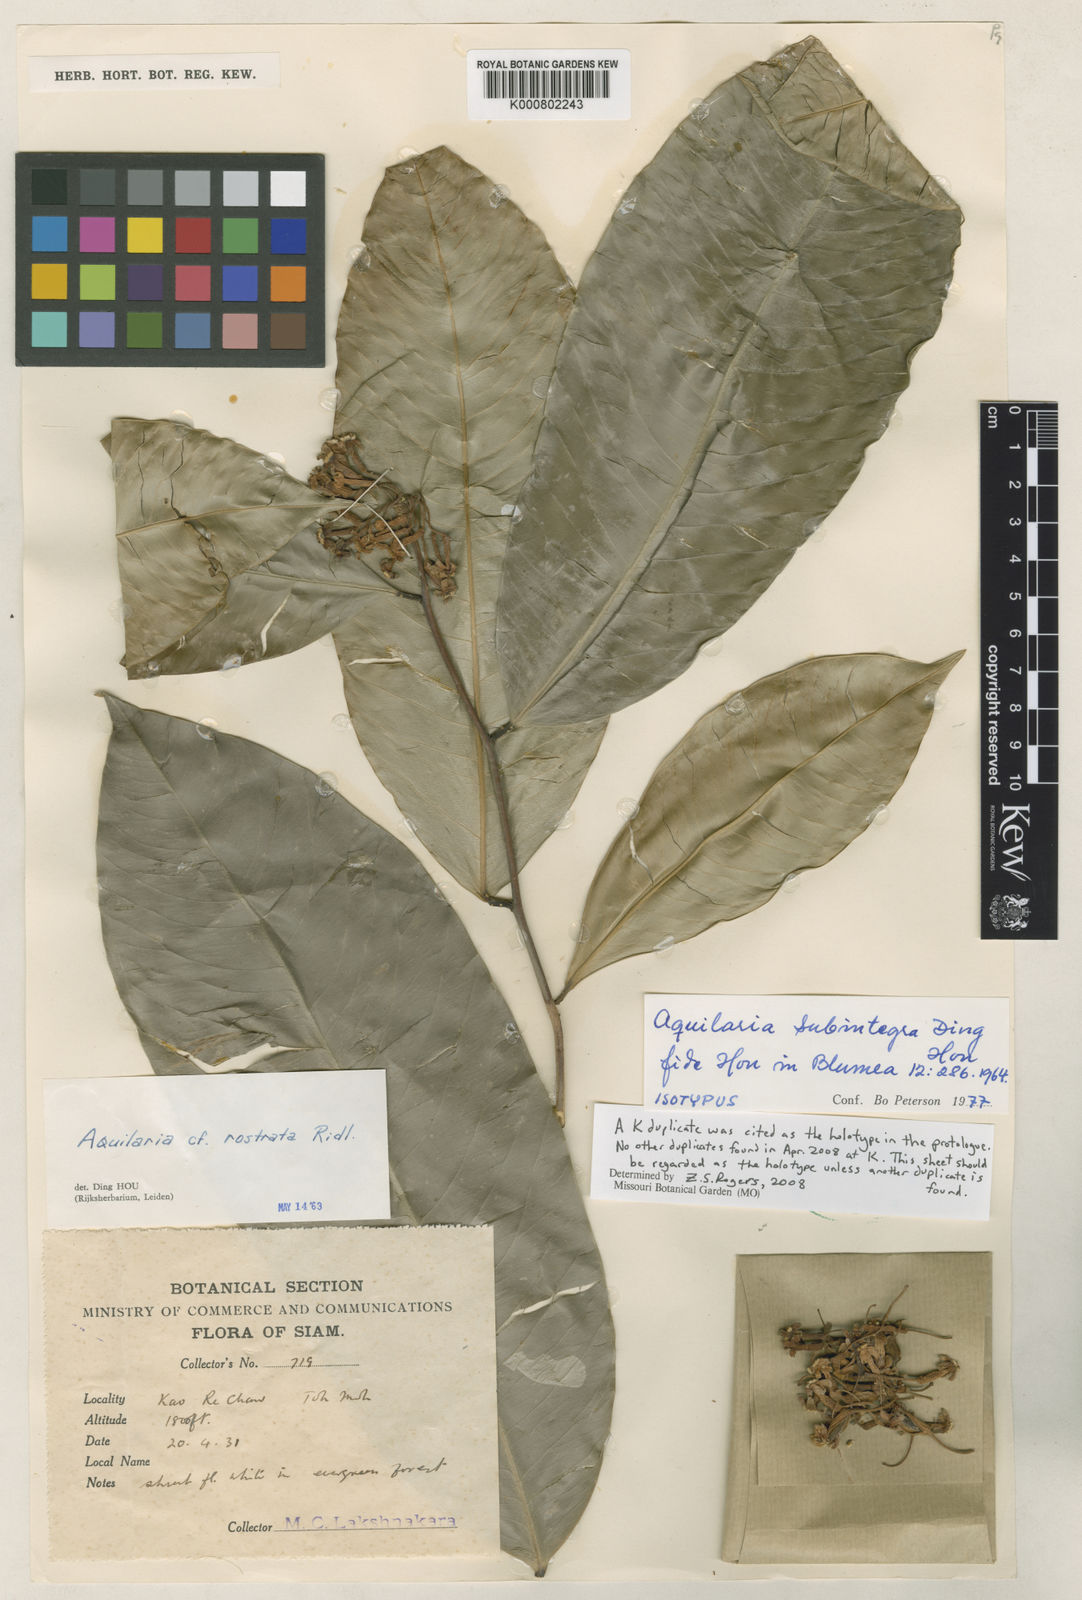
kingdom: Plantae
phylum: Tracheophyta
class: Magnoliopsida
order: Malvales
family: Thymelaeaceae
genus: Aquilaria
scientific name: Aquilaria subintegra
